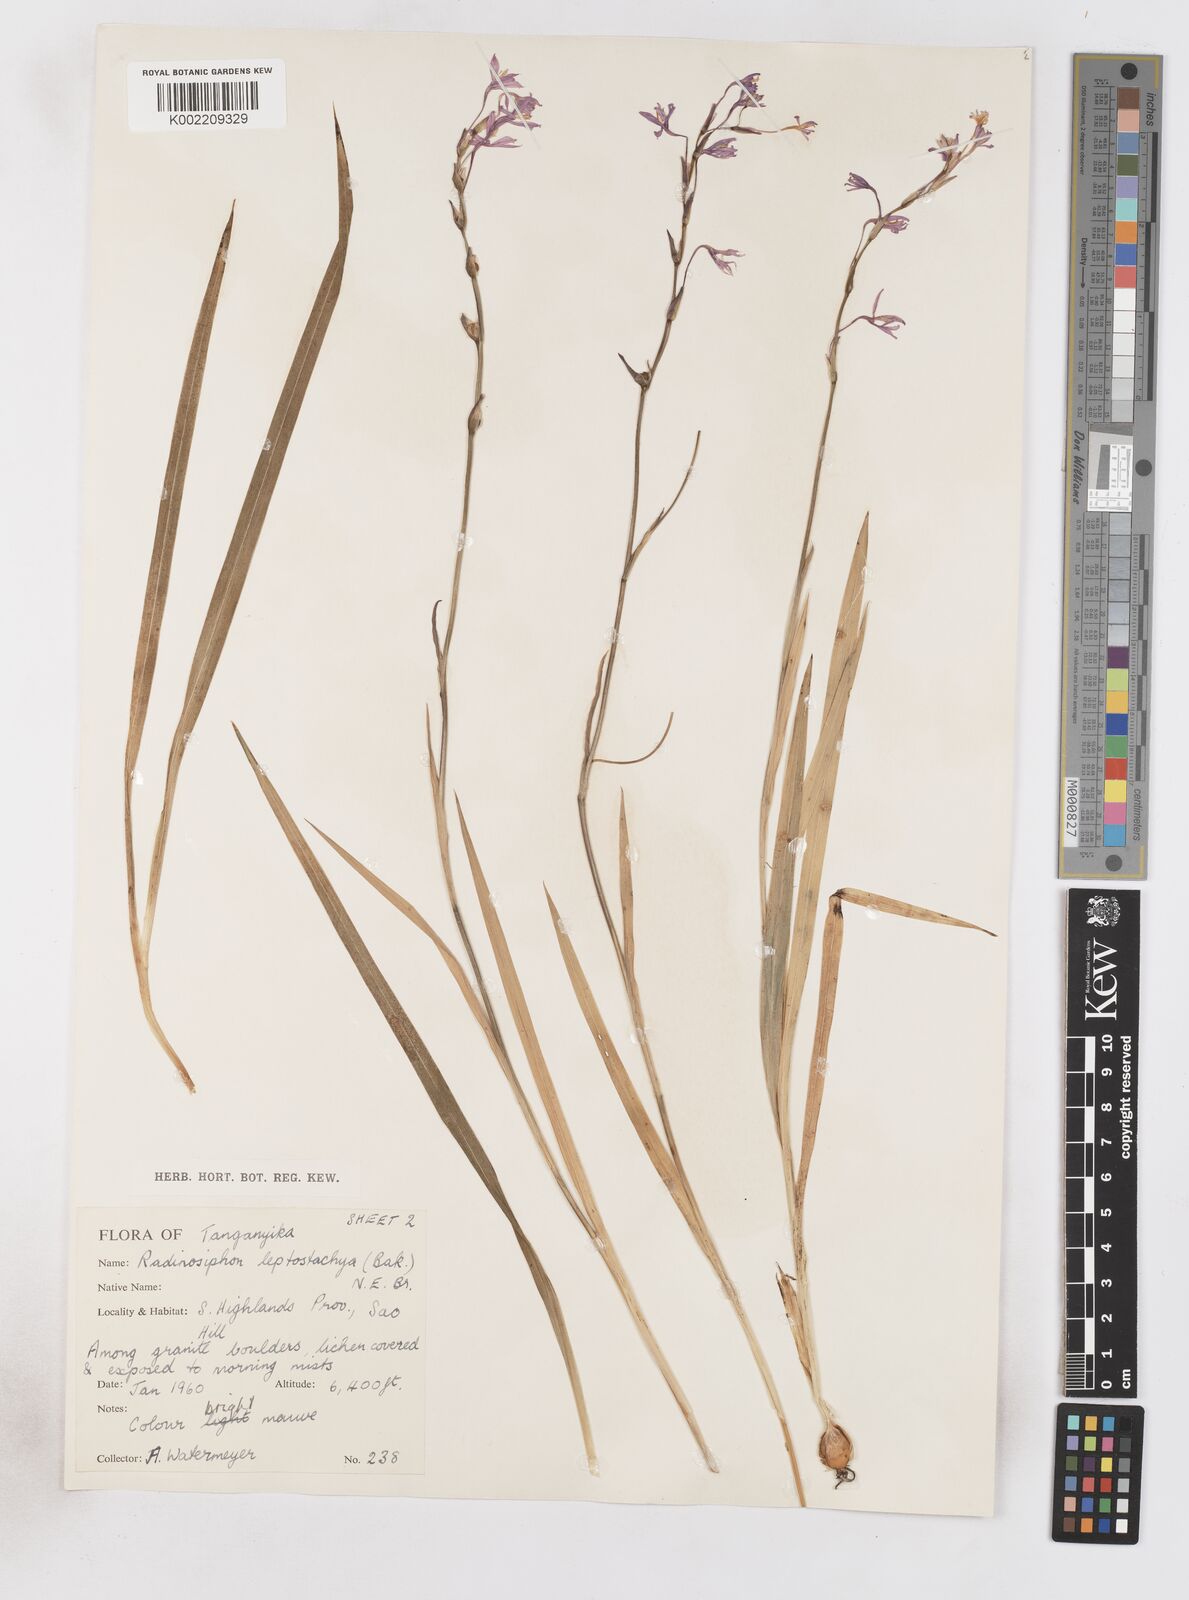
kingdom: Plantae
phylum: Tracheophyta
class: Liliopsida
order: Asparagales
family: Iridaceae
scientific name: Iridaceae
